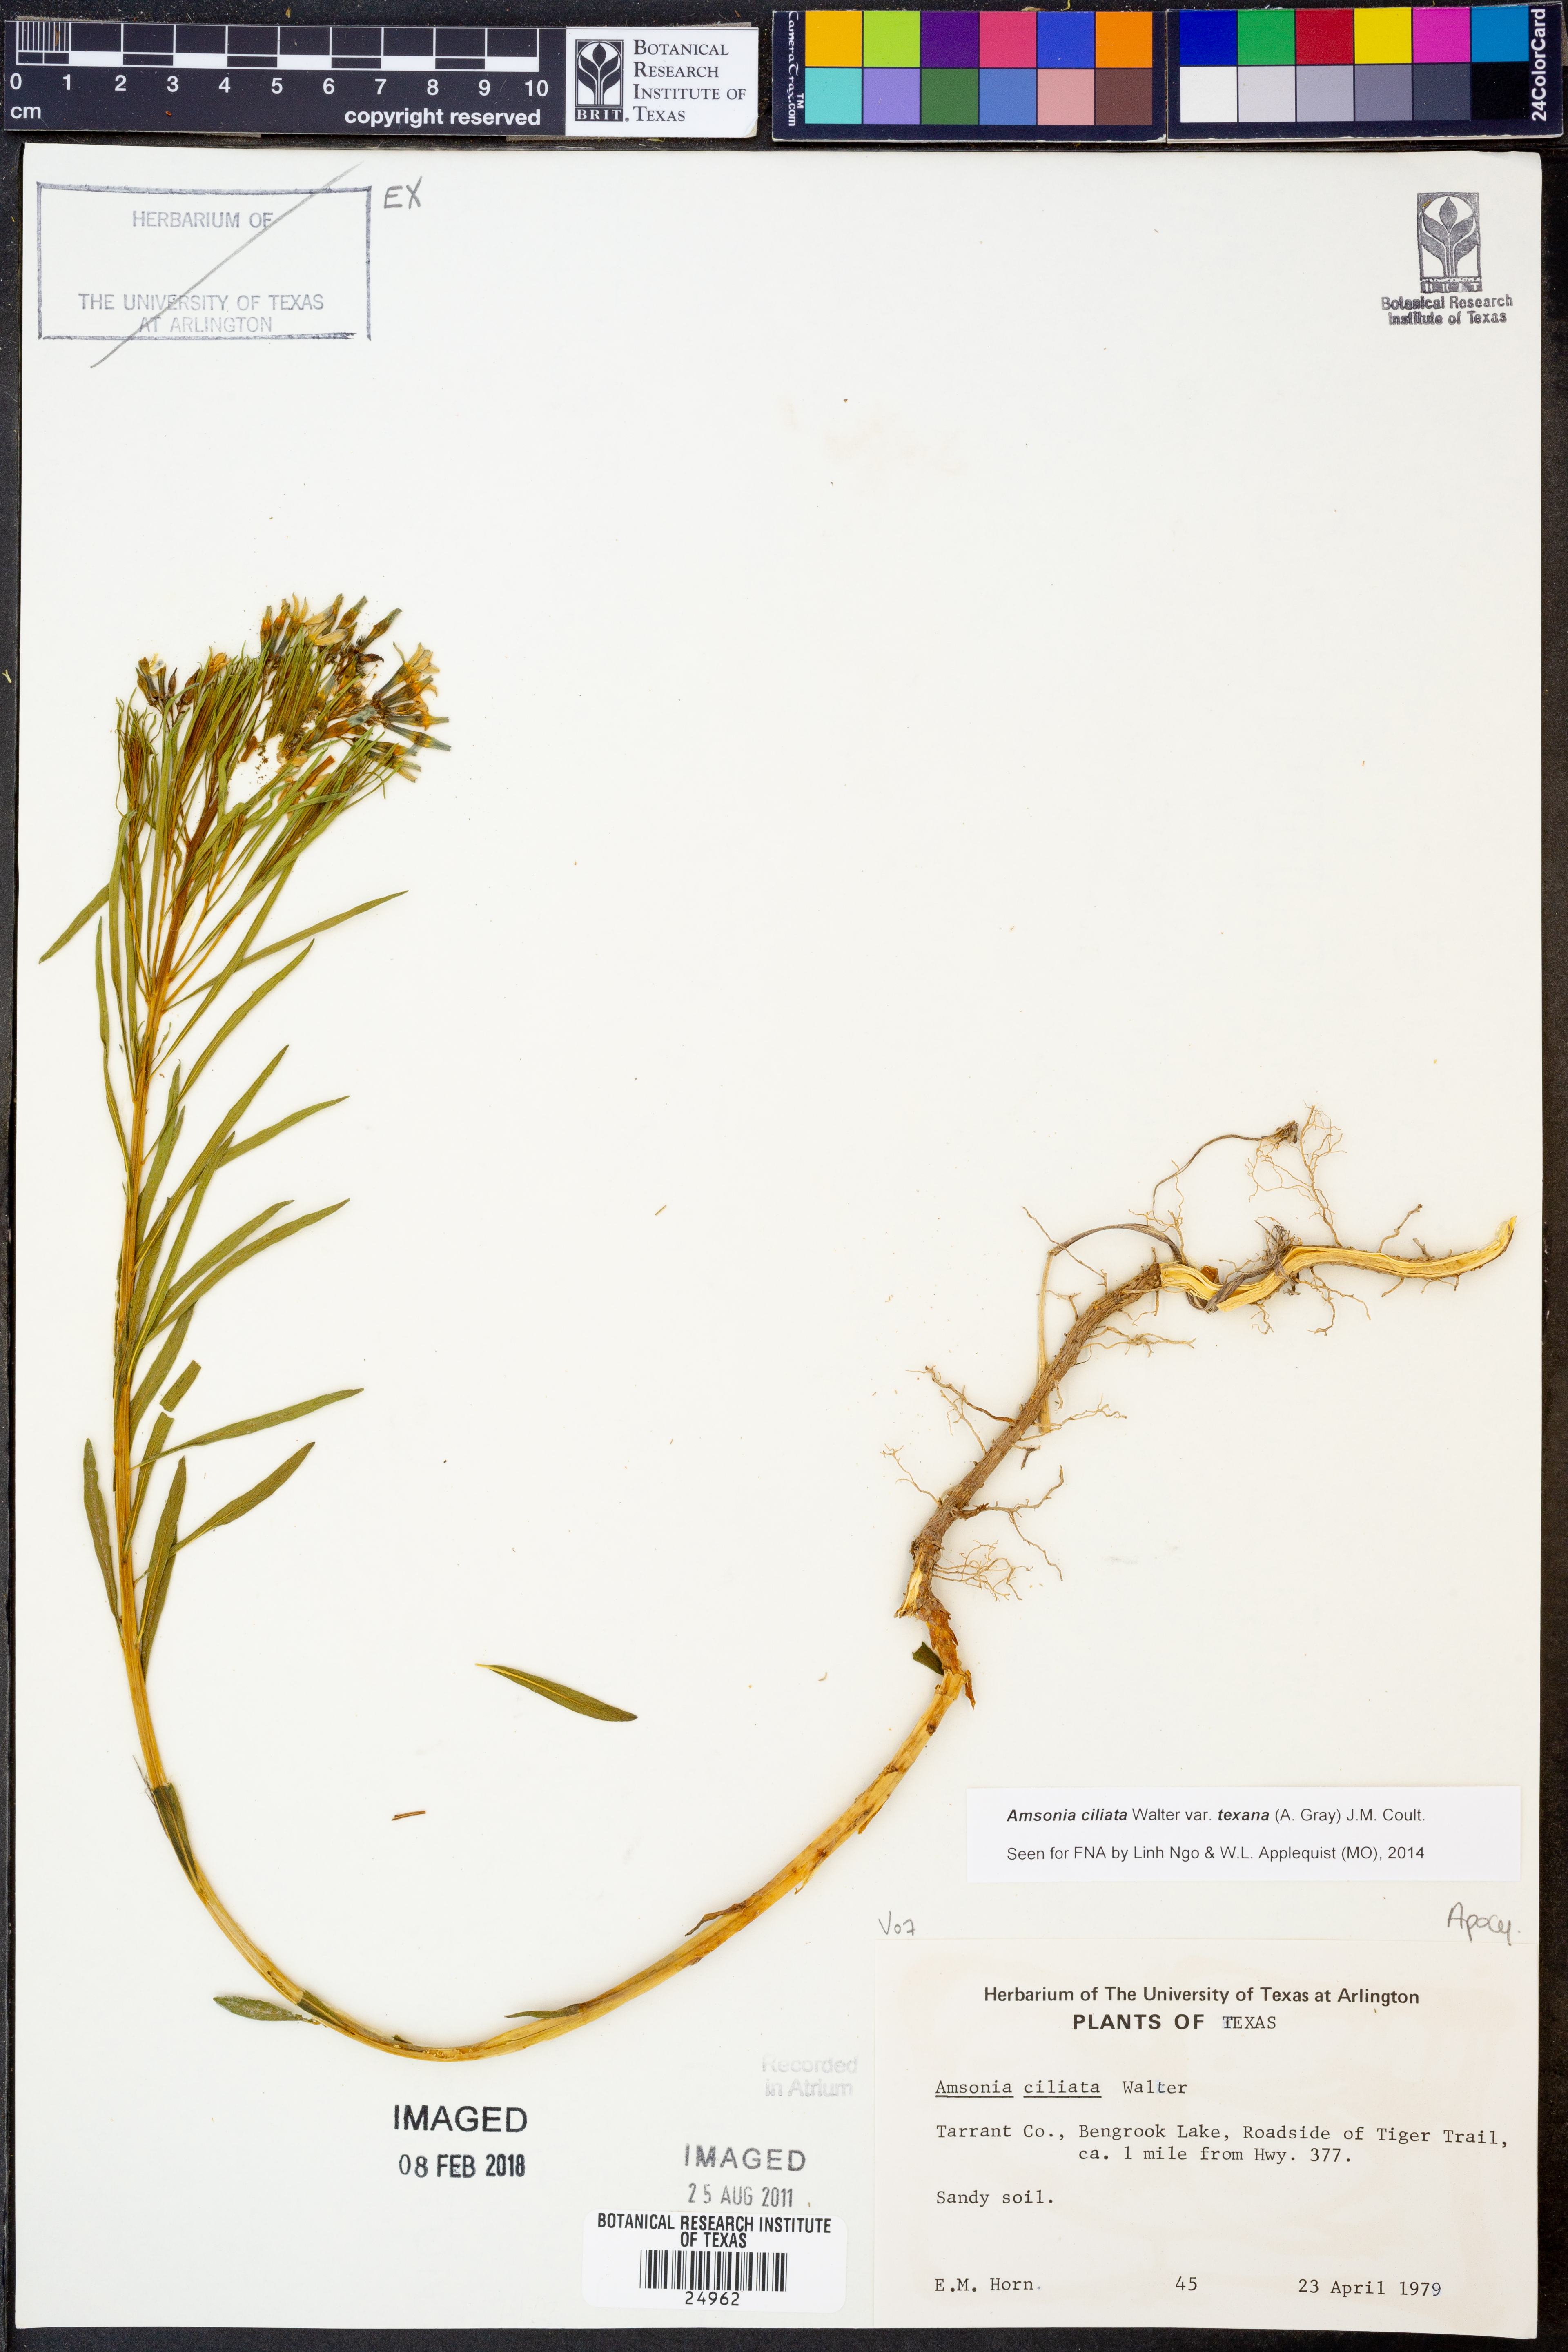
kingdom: Plantae
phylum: Tracheophyta
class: Magnoliopsida
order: Gentianales
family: Apocynaceae
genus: Amsonia
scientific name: Amsonia ciliata
